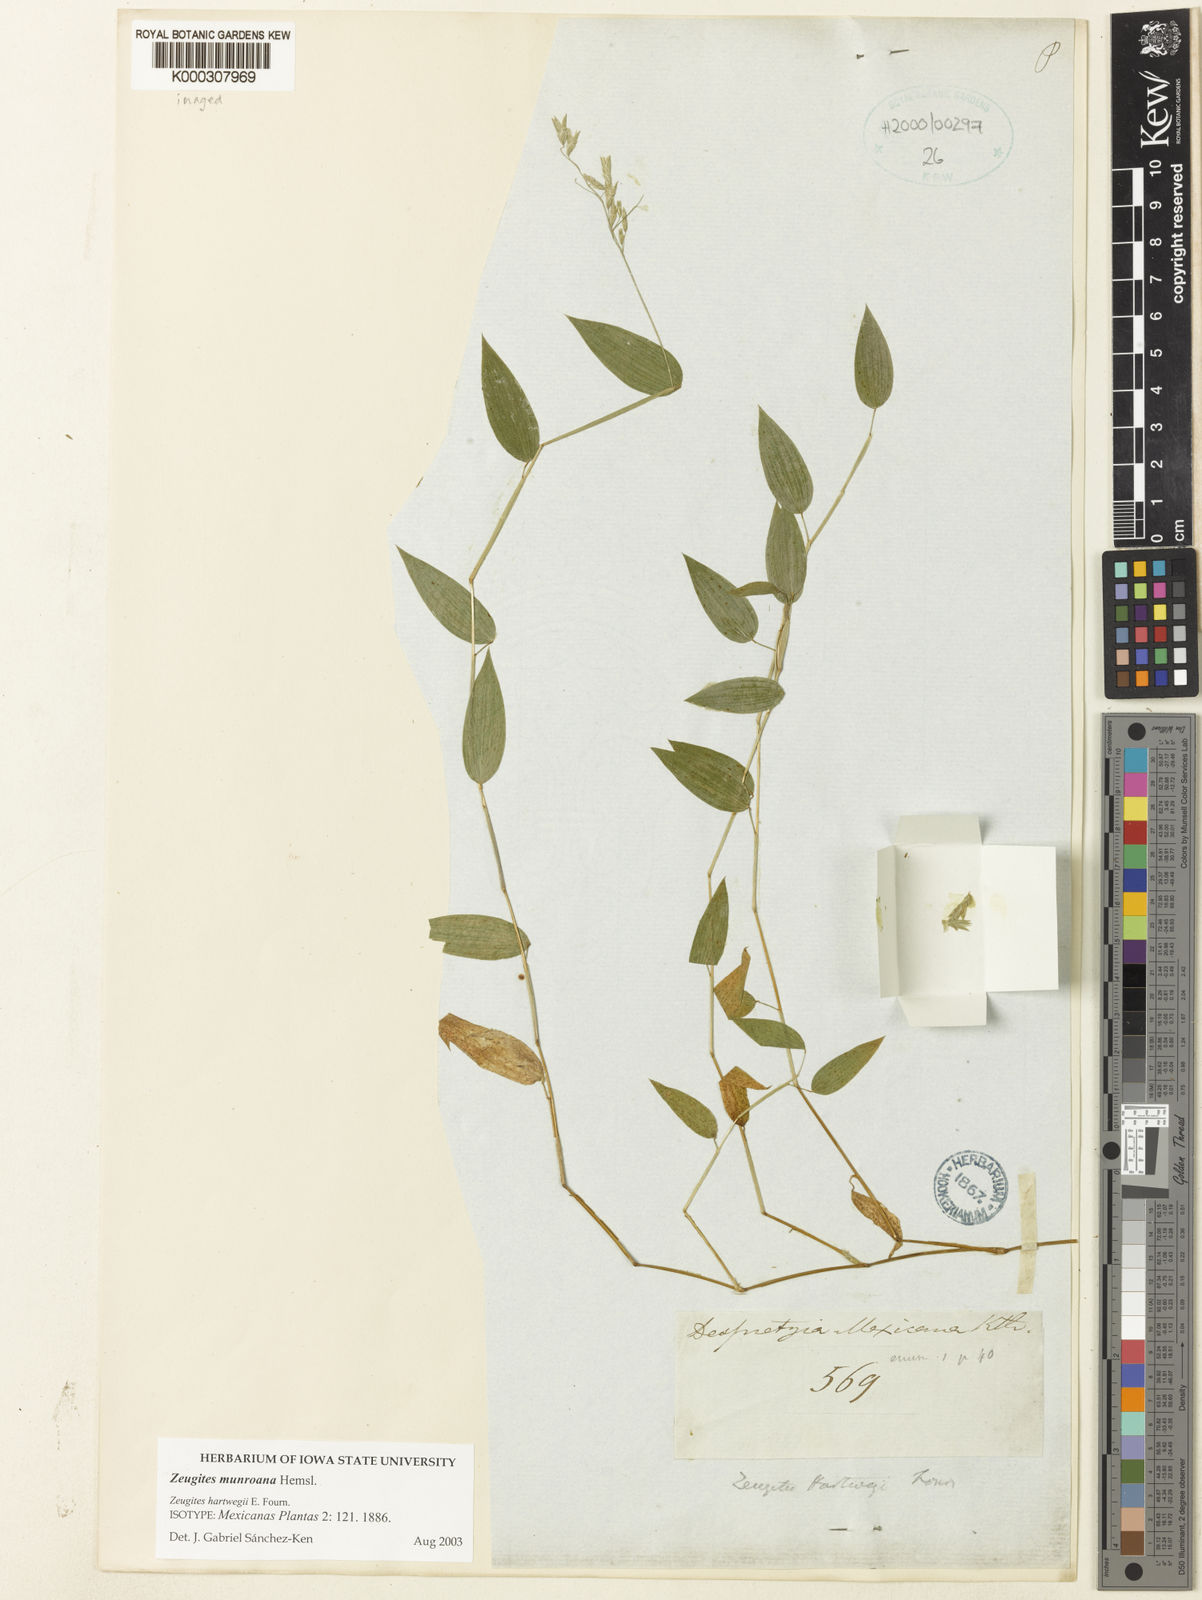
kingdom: Plantae
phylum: Tracheophyta
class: Liliopsida
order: Poales
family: Poaceae
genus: Zeugites
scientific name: Zeugites munroanus
